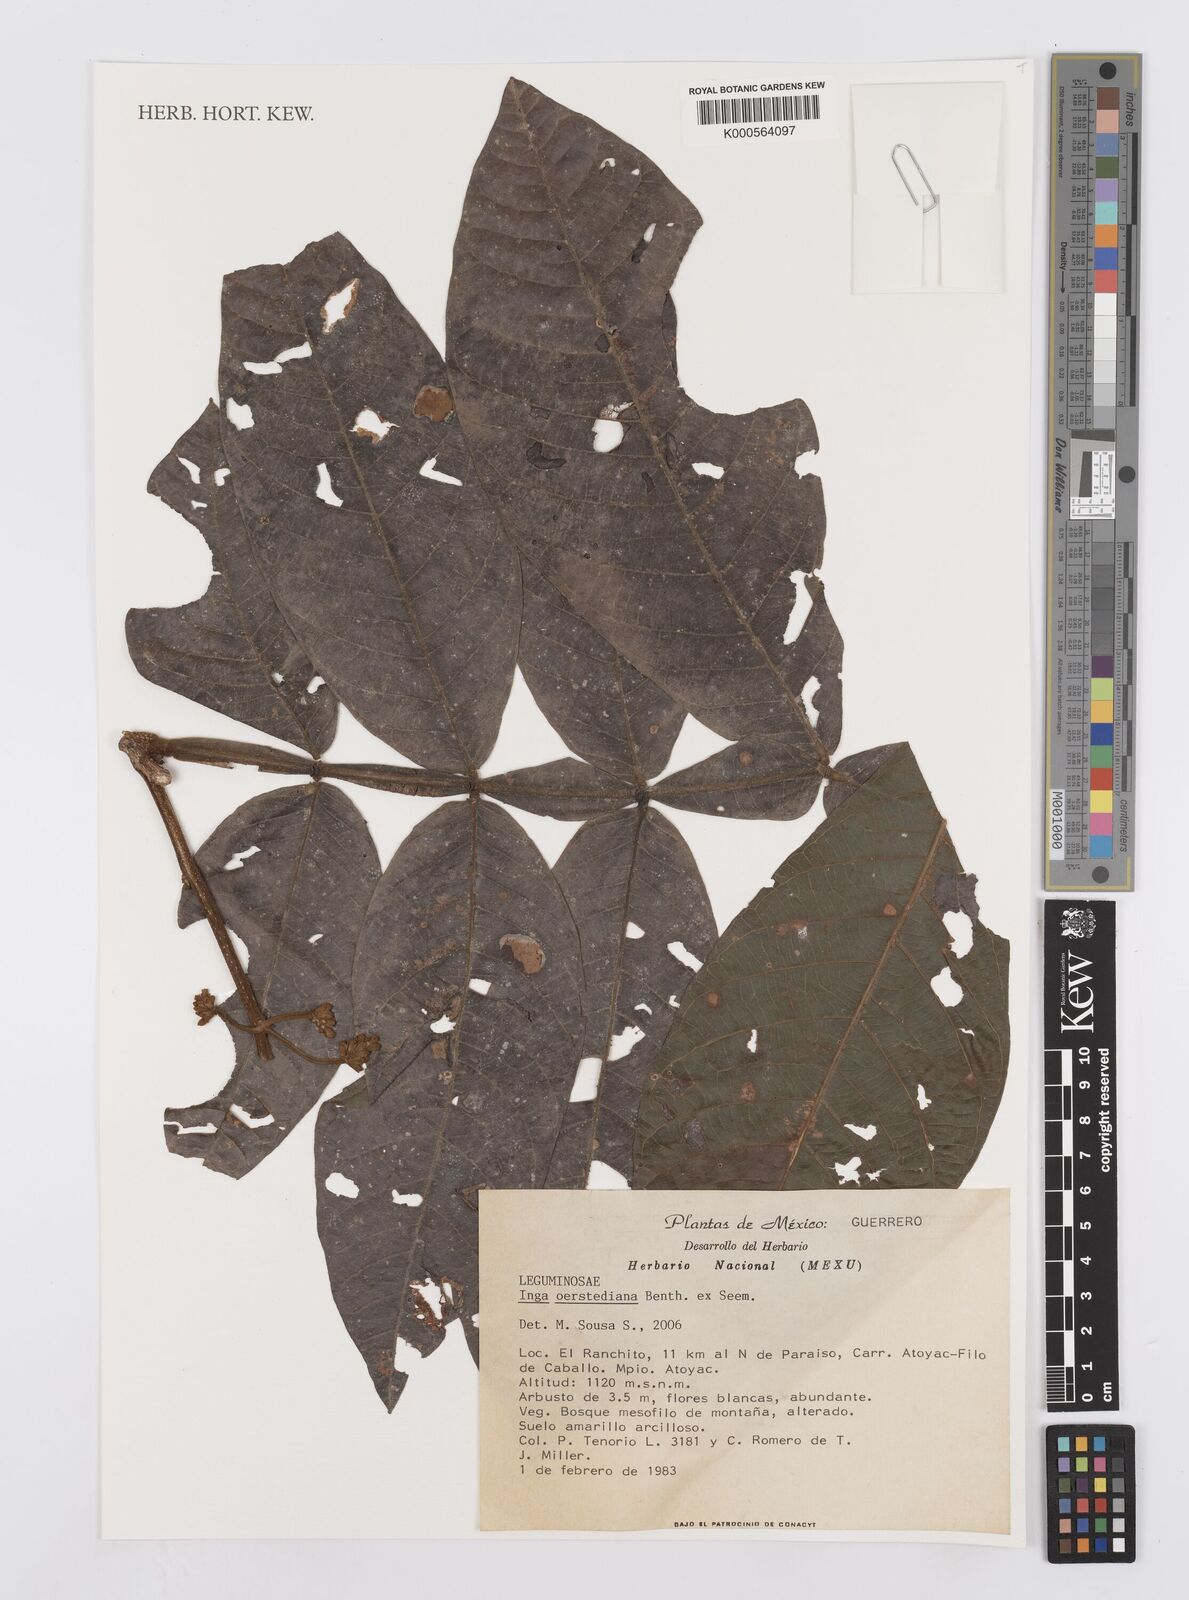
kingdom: Plantae
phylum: Tracheophyta
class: Magnoliopsida
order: Fabales
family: Fabaceae
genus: Inga
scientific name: Inga
